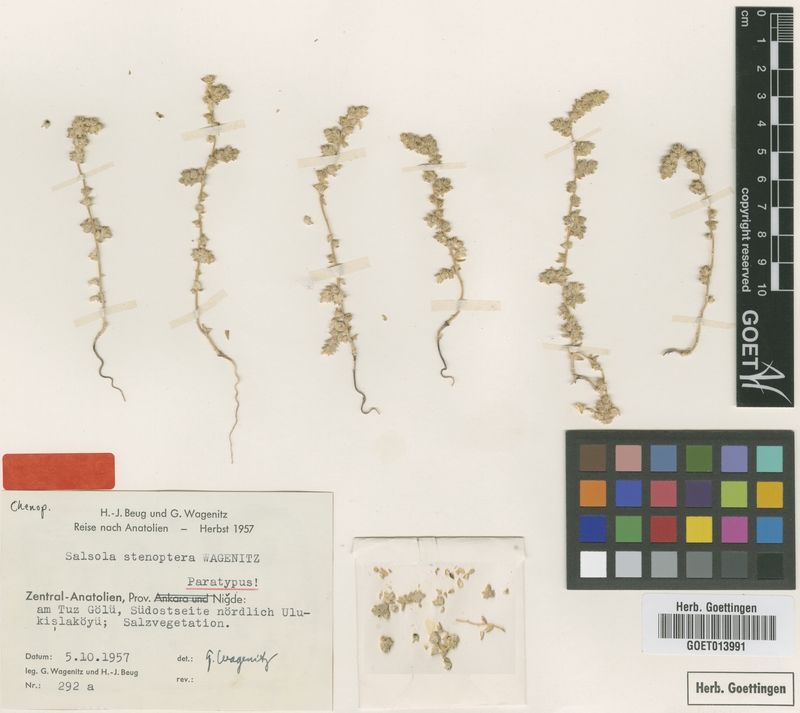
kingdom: Plantae
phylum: Tracheophyta
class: Magnoliopsida
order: Caryophyllales
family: Amaranthaceae
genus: Caroxylon
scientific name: Caroxylon stenopterum
